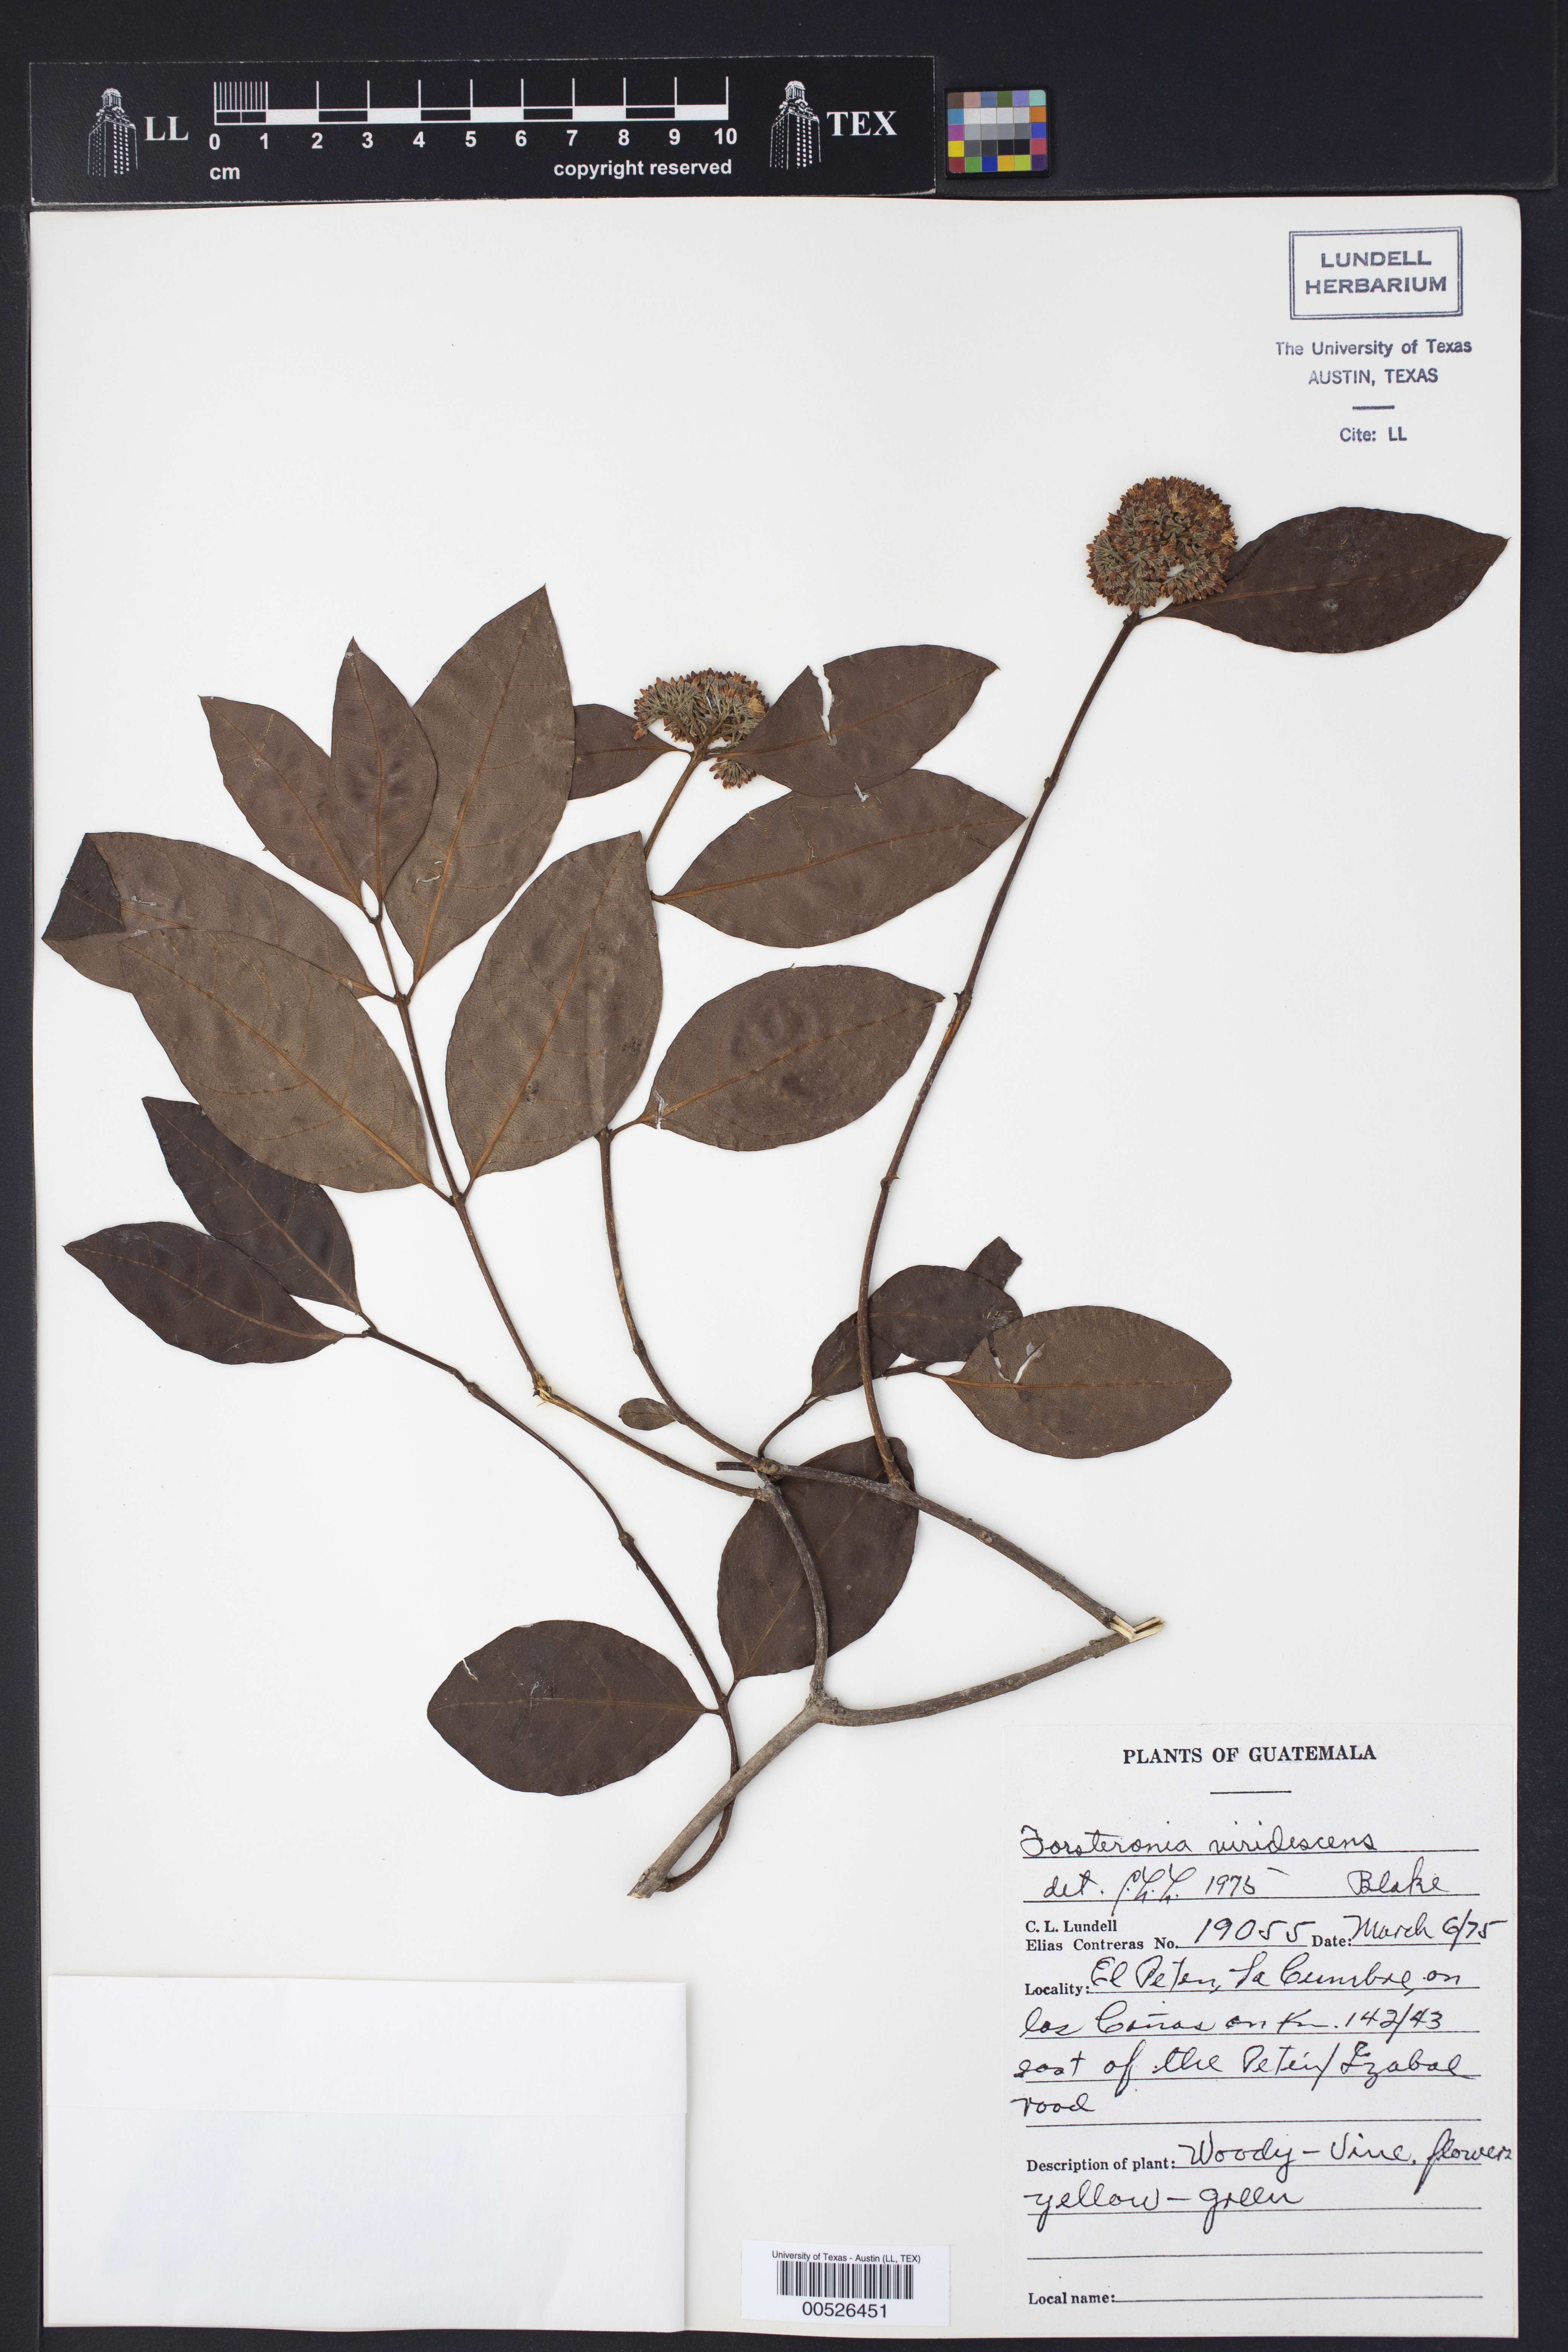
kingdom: Plantae
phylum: Tracheophyta
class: Magnoliopsida
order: Gentianales
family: Apocynaceae
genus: Forsteronia
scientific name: Forsteronia acouci
